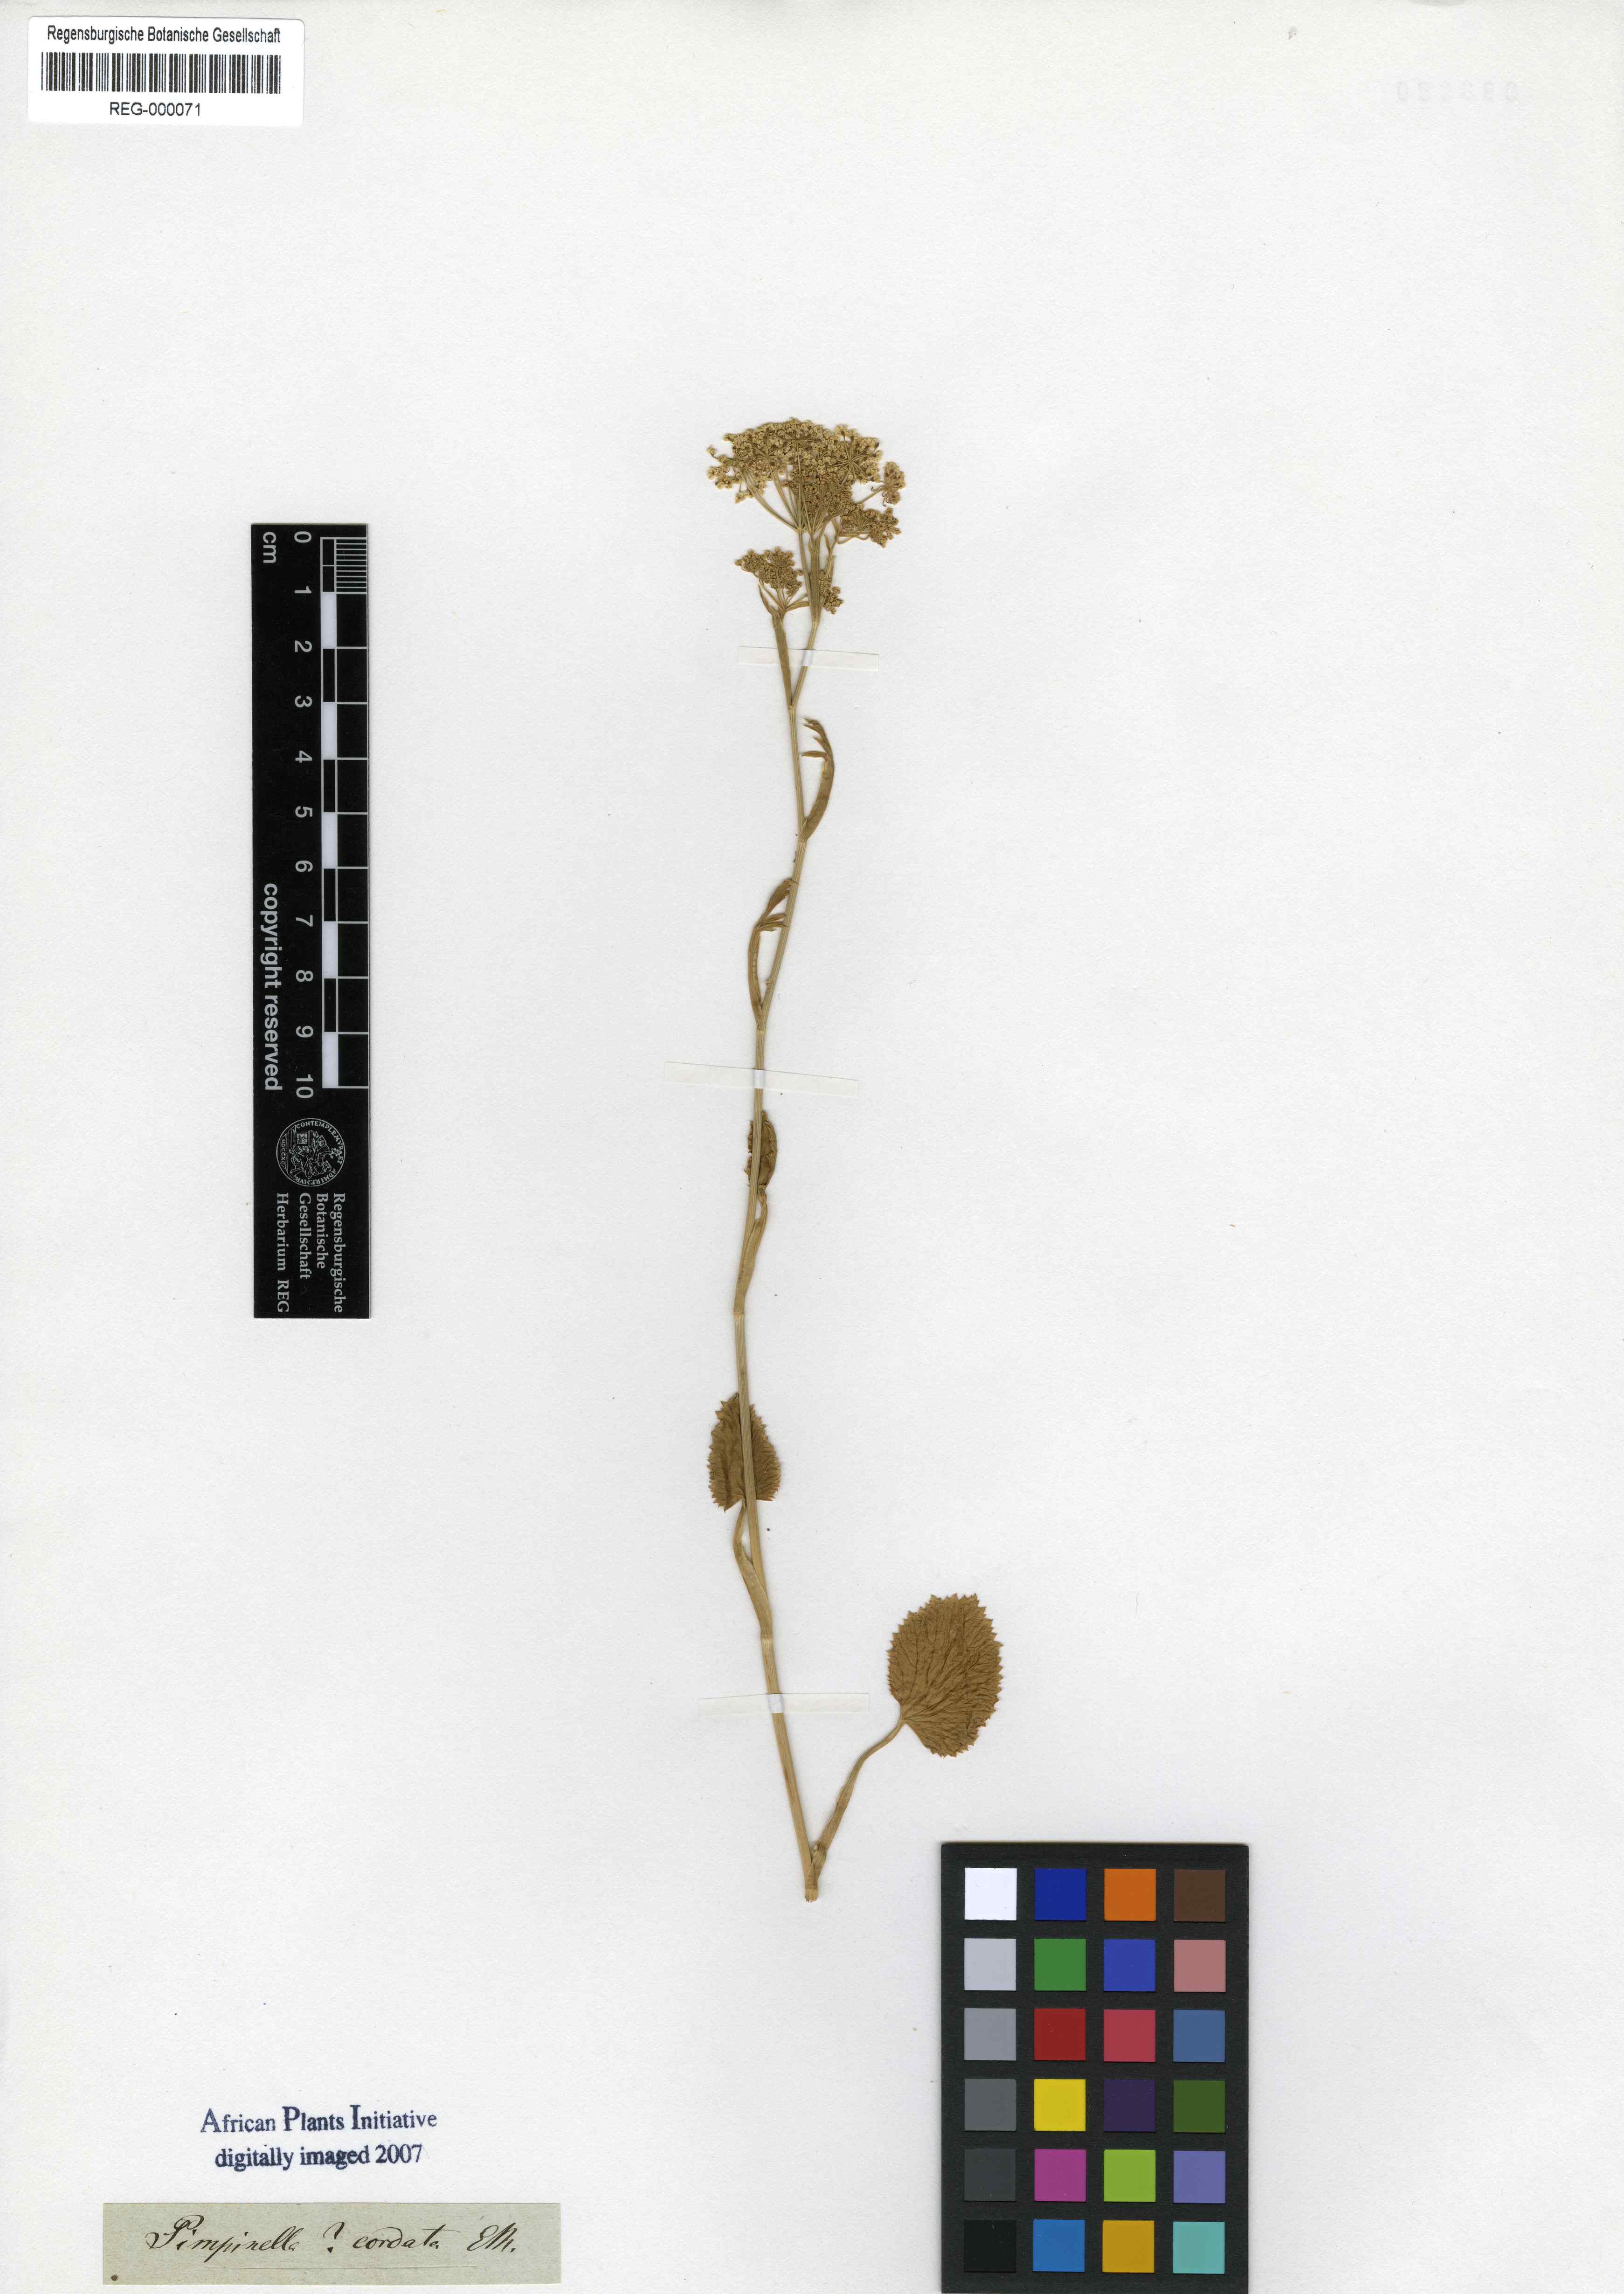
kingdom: Plantae
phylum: Tracheophyta
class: Magnoliopsida
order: Apiales
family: Apiaceae
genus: Pimpinella
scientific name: Pimpinella caffra
